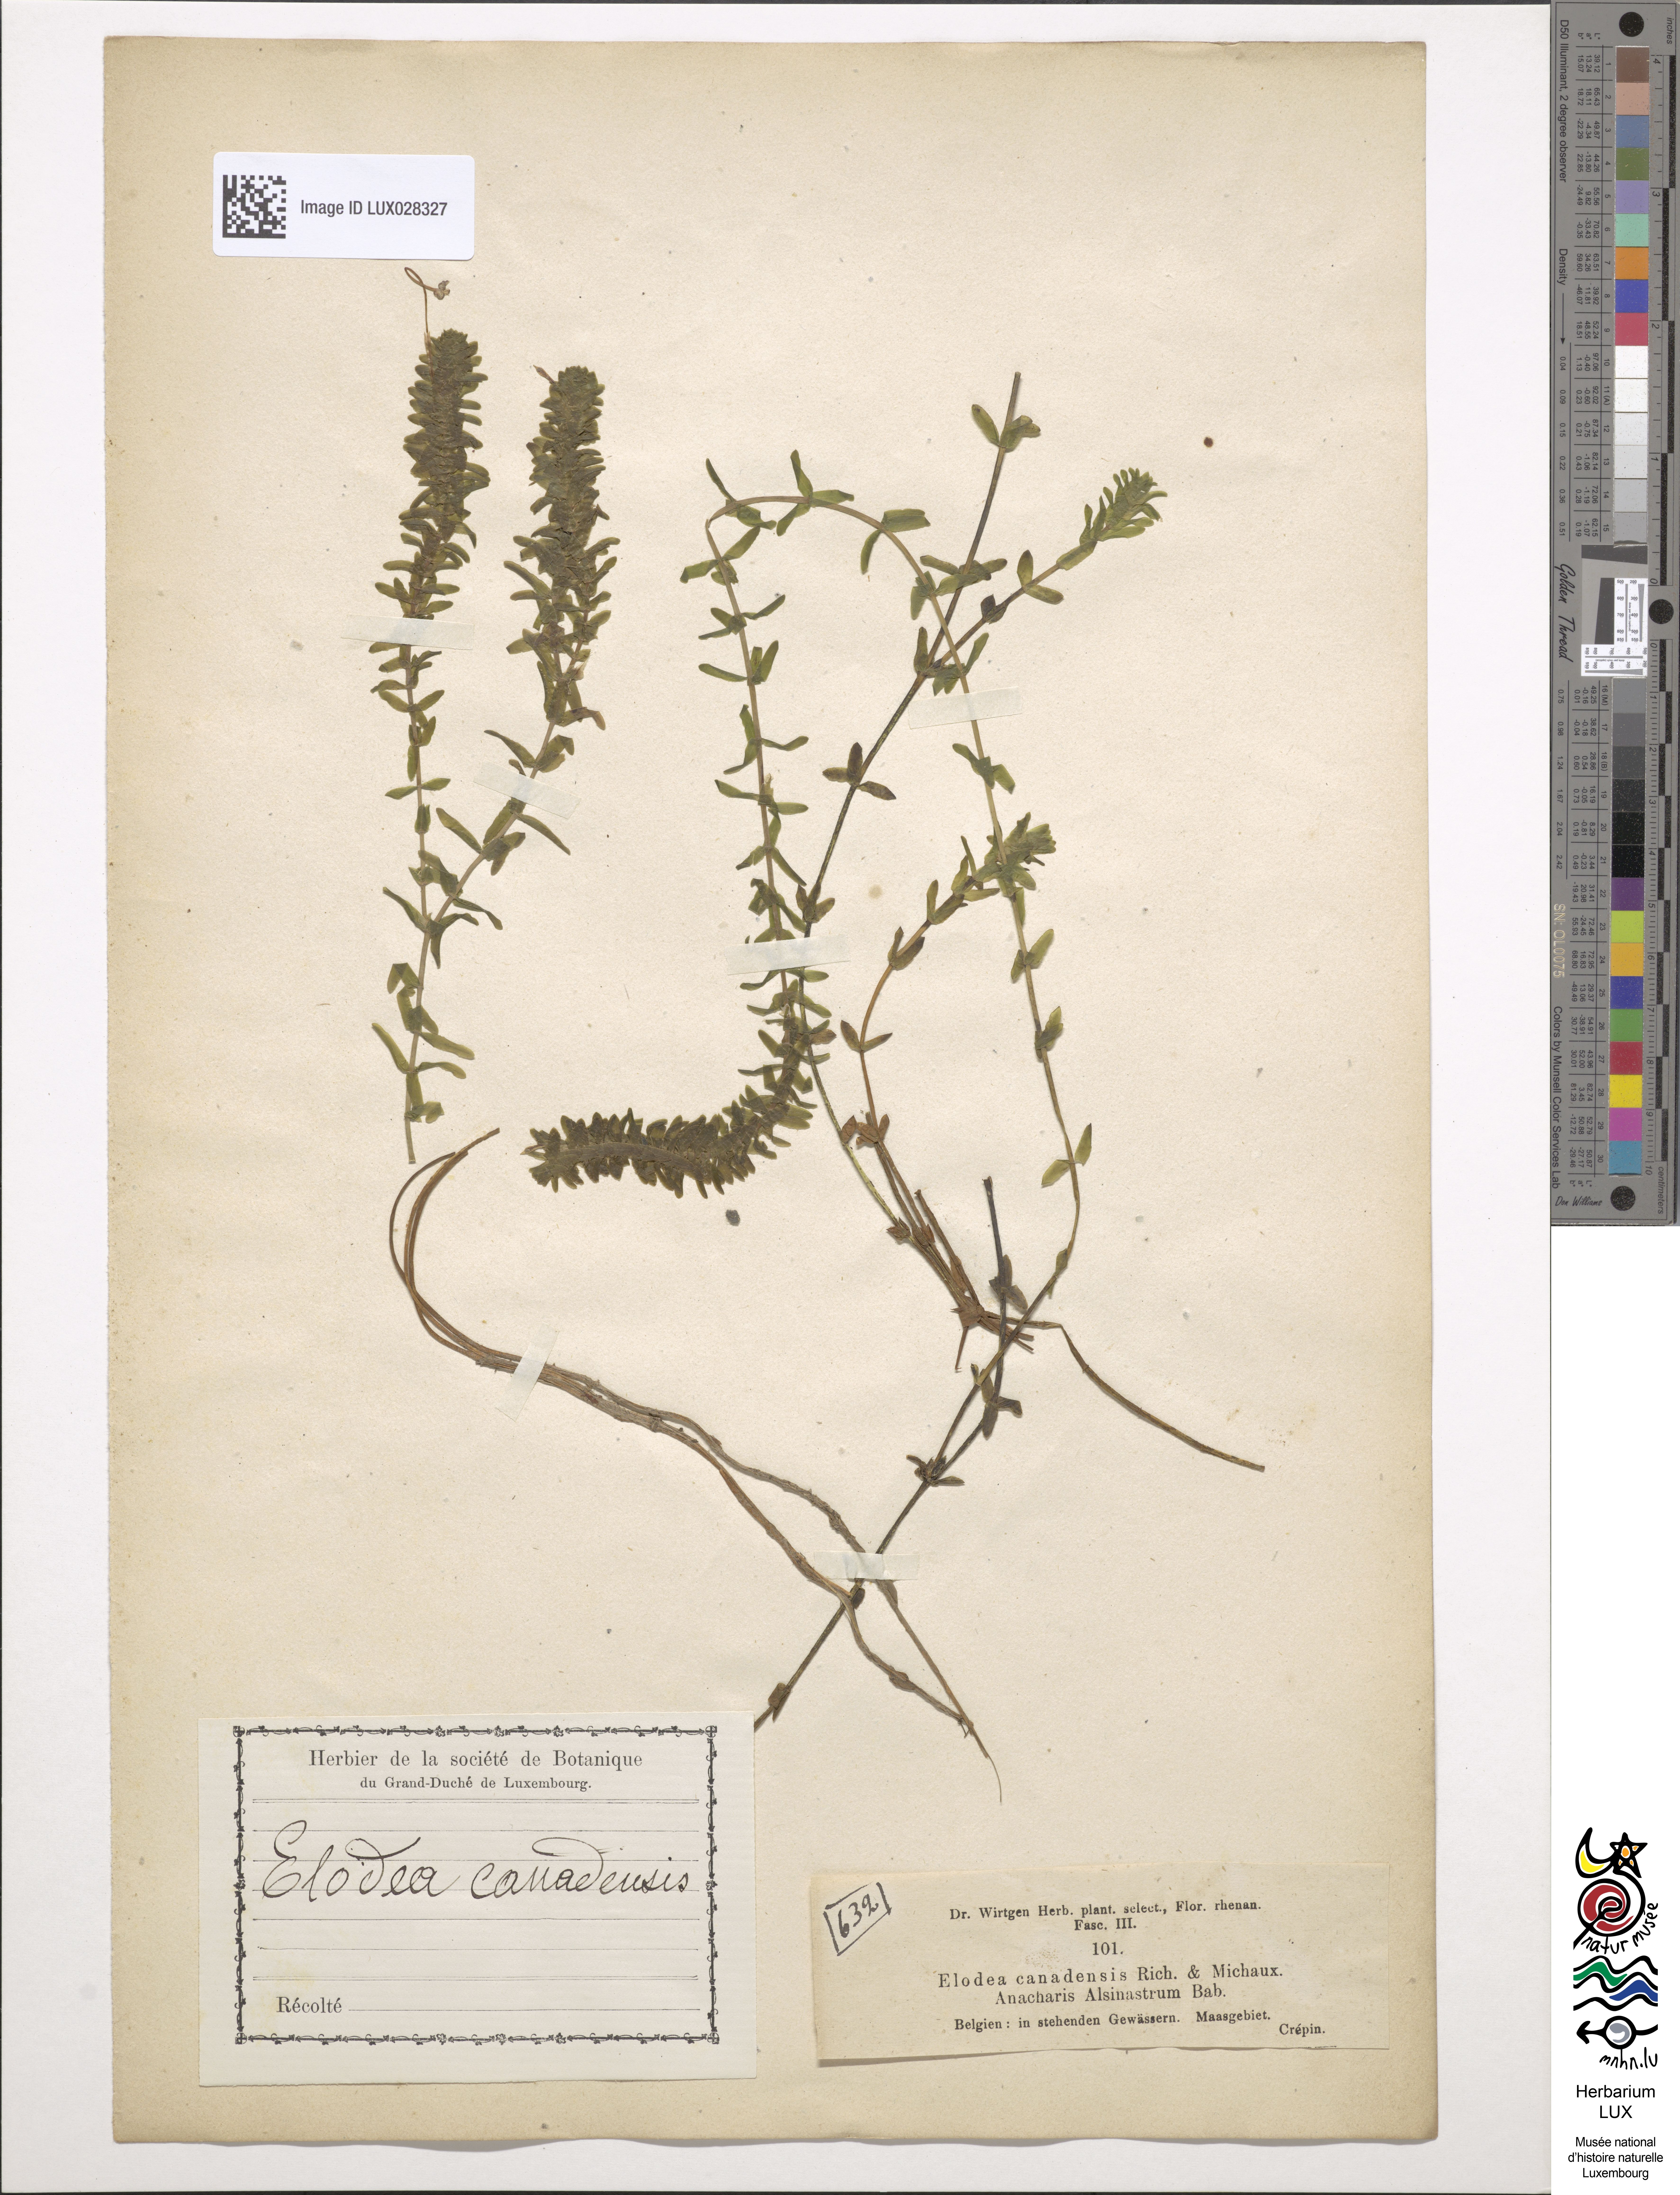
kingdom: Plantae
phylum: Tracheophyta
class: Liliopsida
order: Alismatales
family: Hydrocharitaceae
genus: Elodea
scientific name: Elodea canadensis
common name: Canadian waterweed
